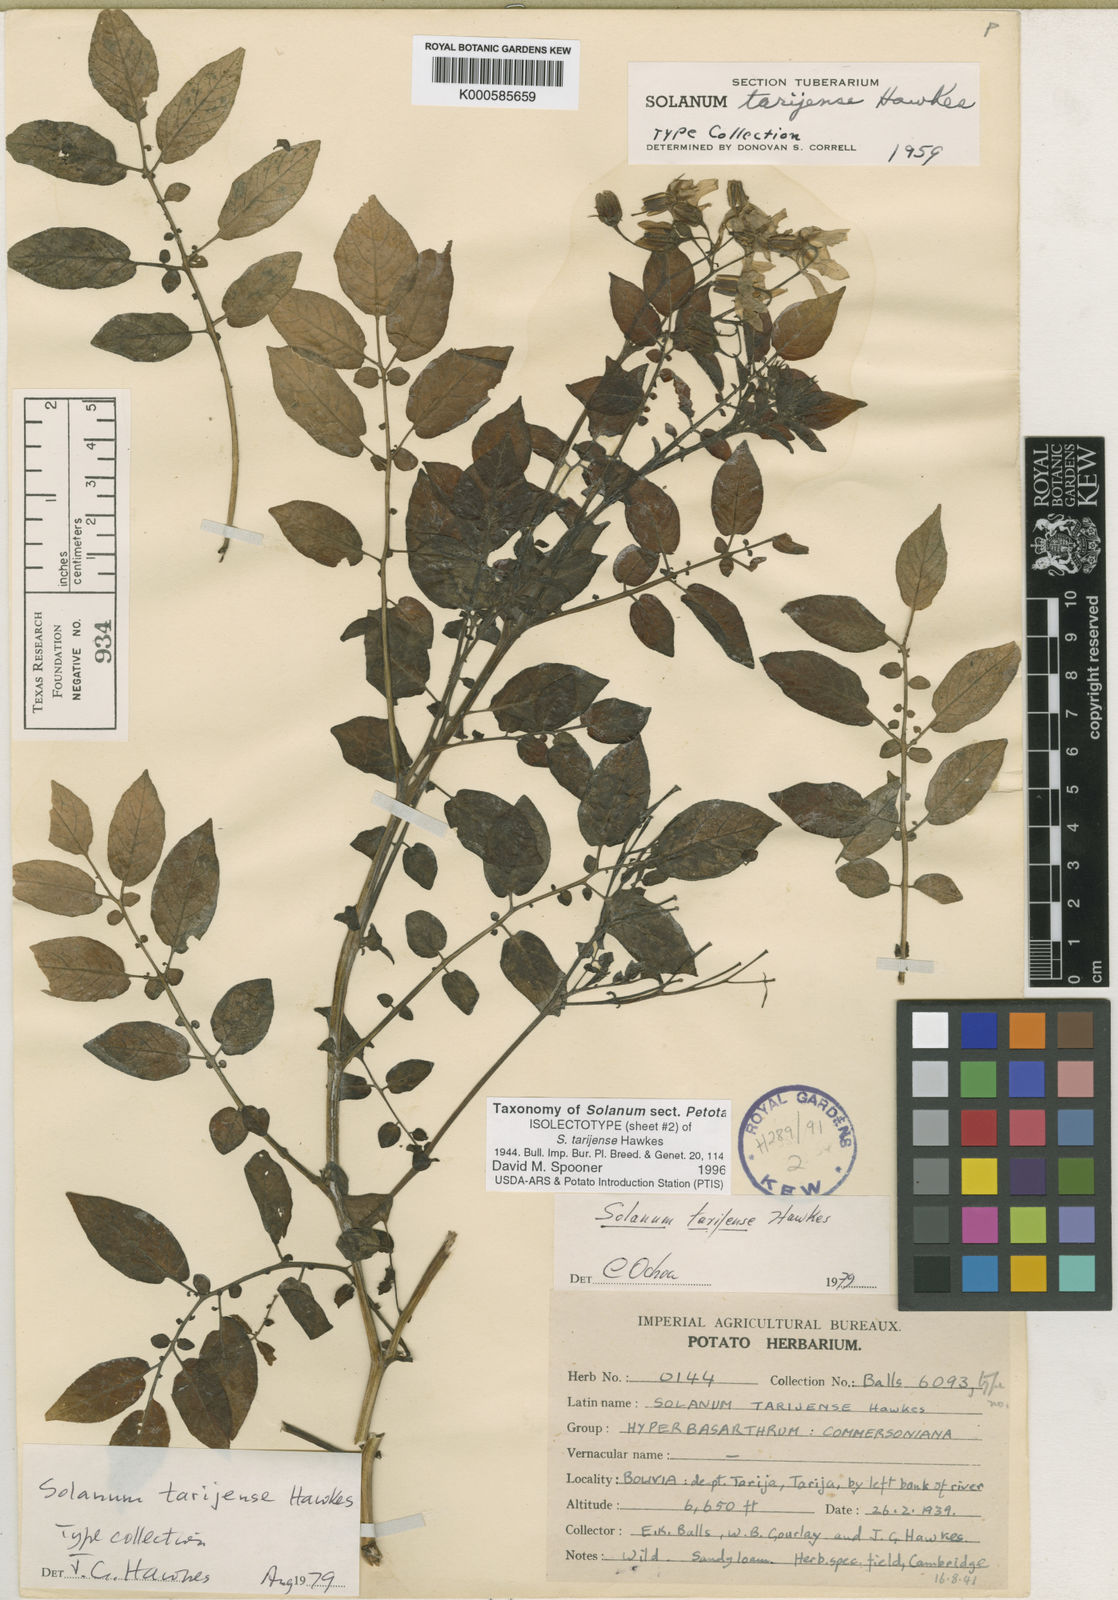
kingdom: Plantae
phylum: Tracheophyta
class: Magnoliopsida
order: Solanales
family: Solanaceae
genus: Solanum
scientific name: Solanum tarijense
